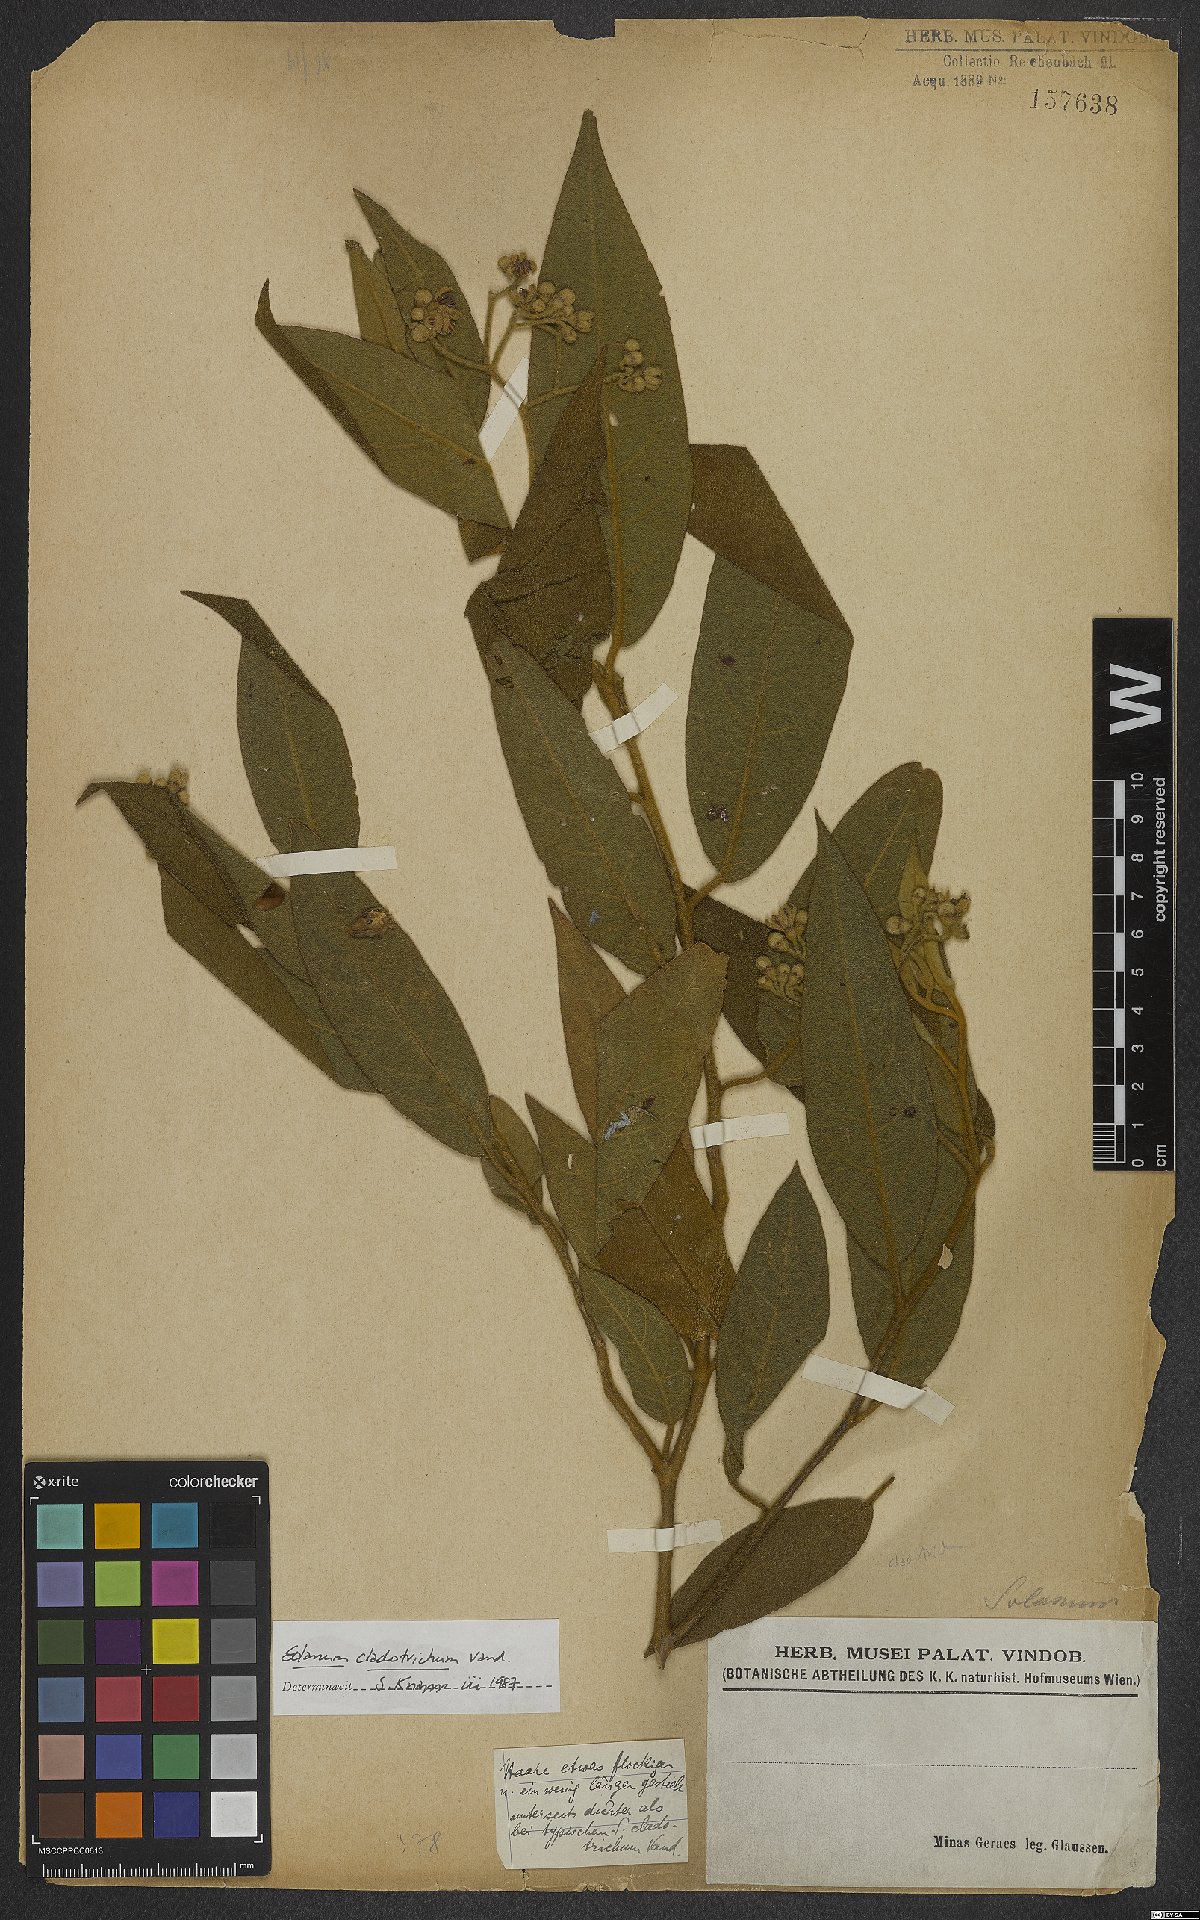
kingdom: Plantae
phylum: Tracheophyta
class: Magnoliopsida
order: Solanales
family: Solanaceae
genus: Solanum
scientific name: Solanum jussiaei
